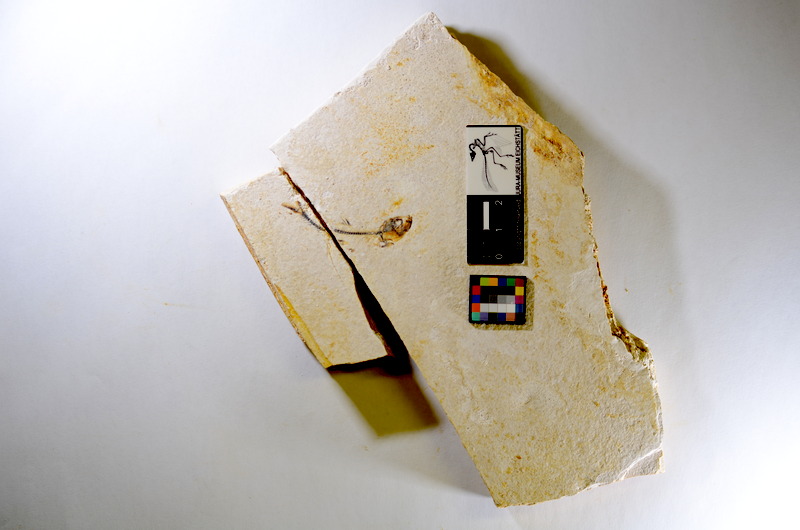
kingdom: Animalia
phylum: Chordata
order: Salmoniformes
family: Orthogonikleithridae
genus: Orthogonikleithrus
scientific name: Orthogonikleithrus hoelli
